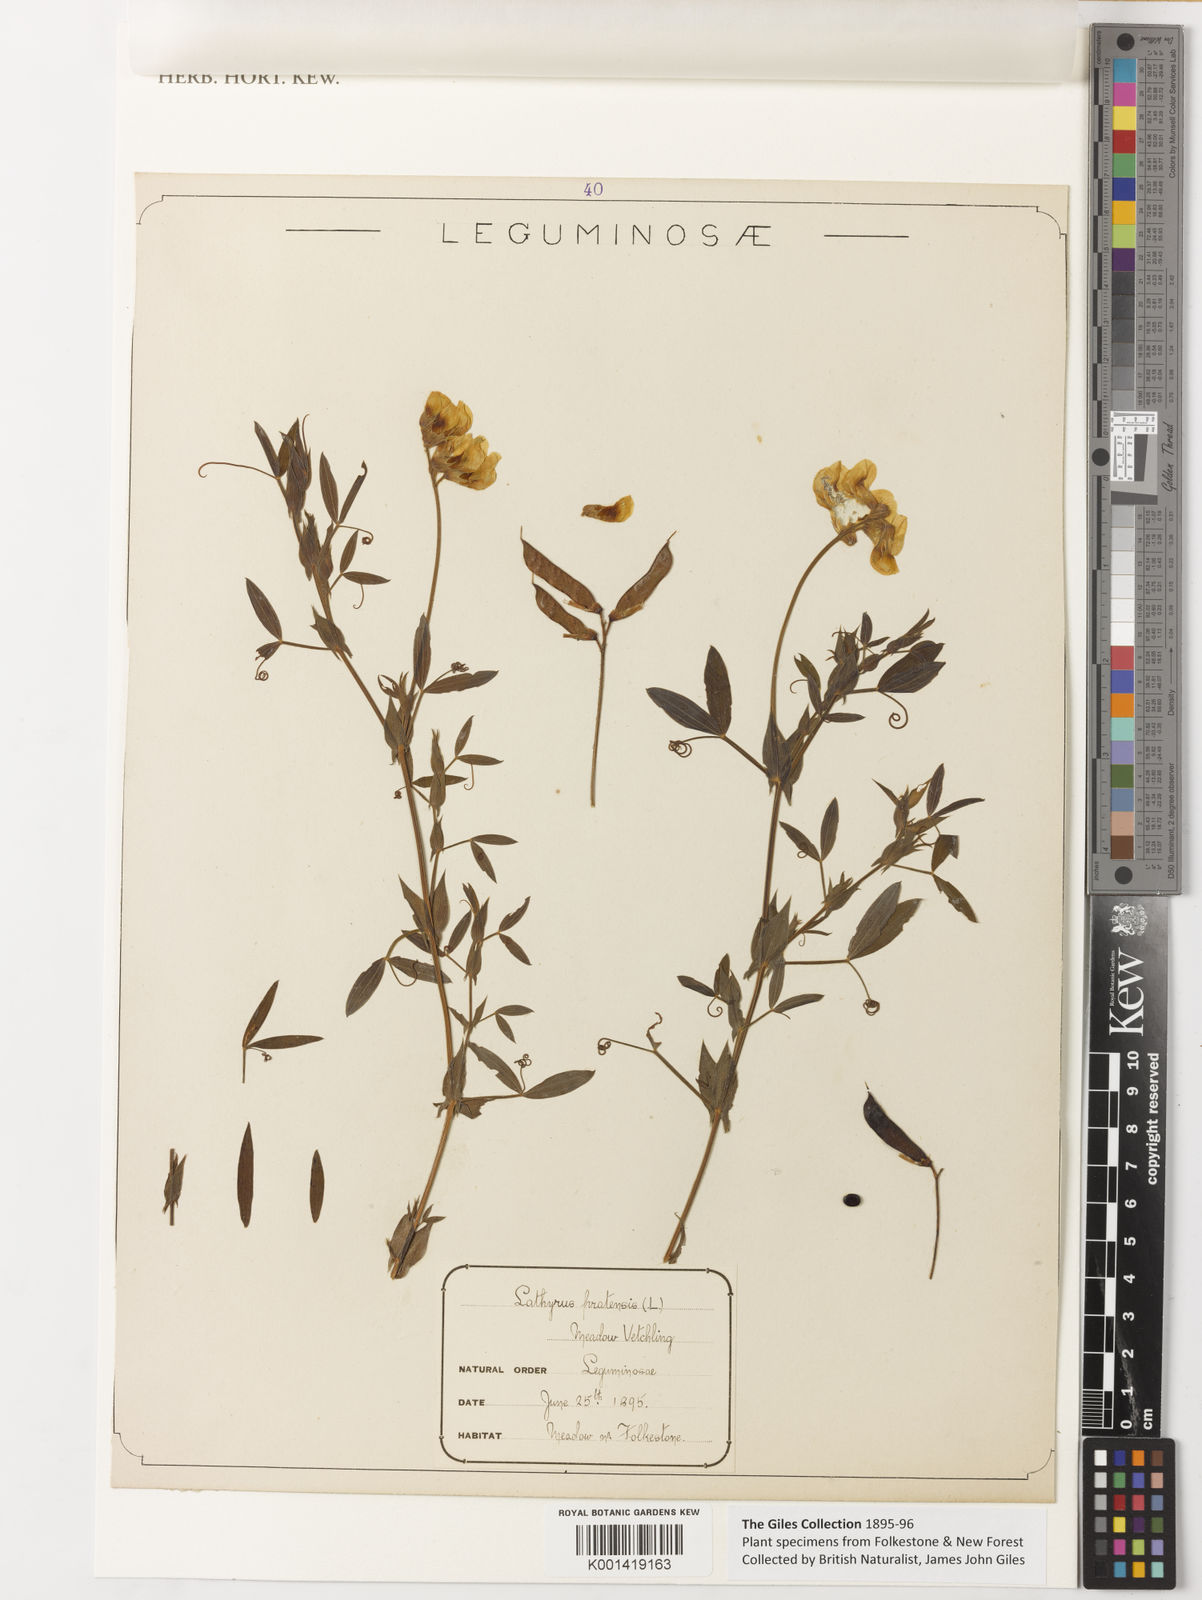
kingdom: Plantae
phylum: Tracheophyta
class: Magnoliopsida
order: Fabales
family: Fabaceae
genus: Lathyrus
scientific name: Lathyrus pratensis
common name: Meadow vetchling
